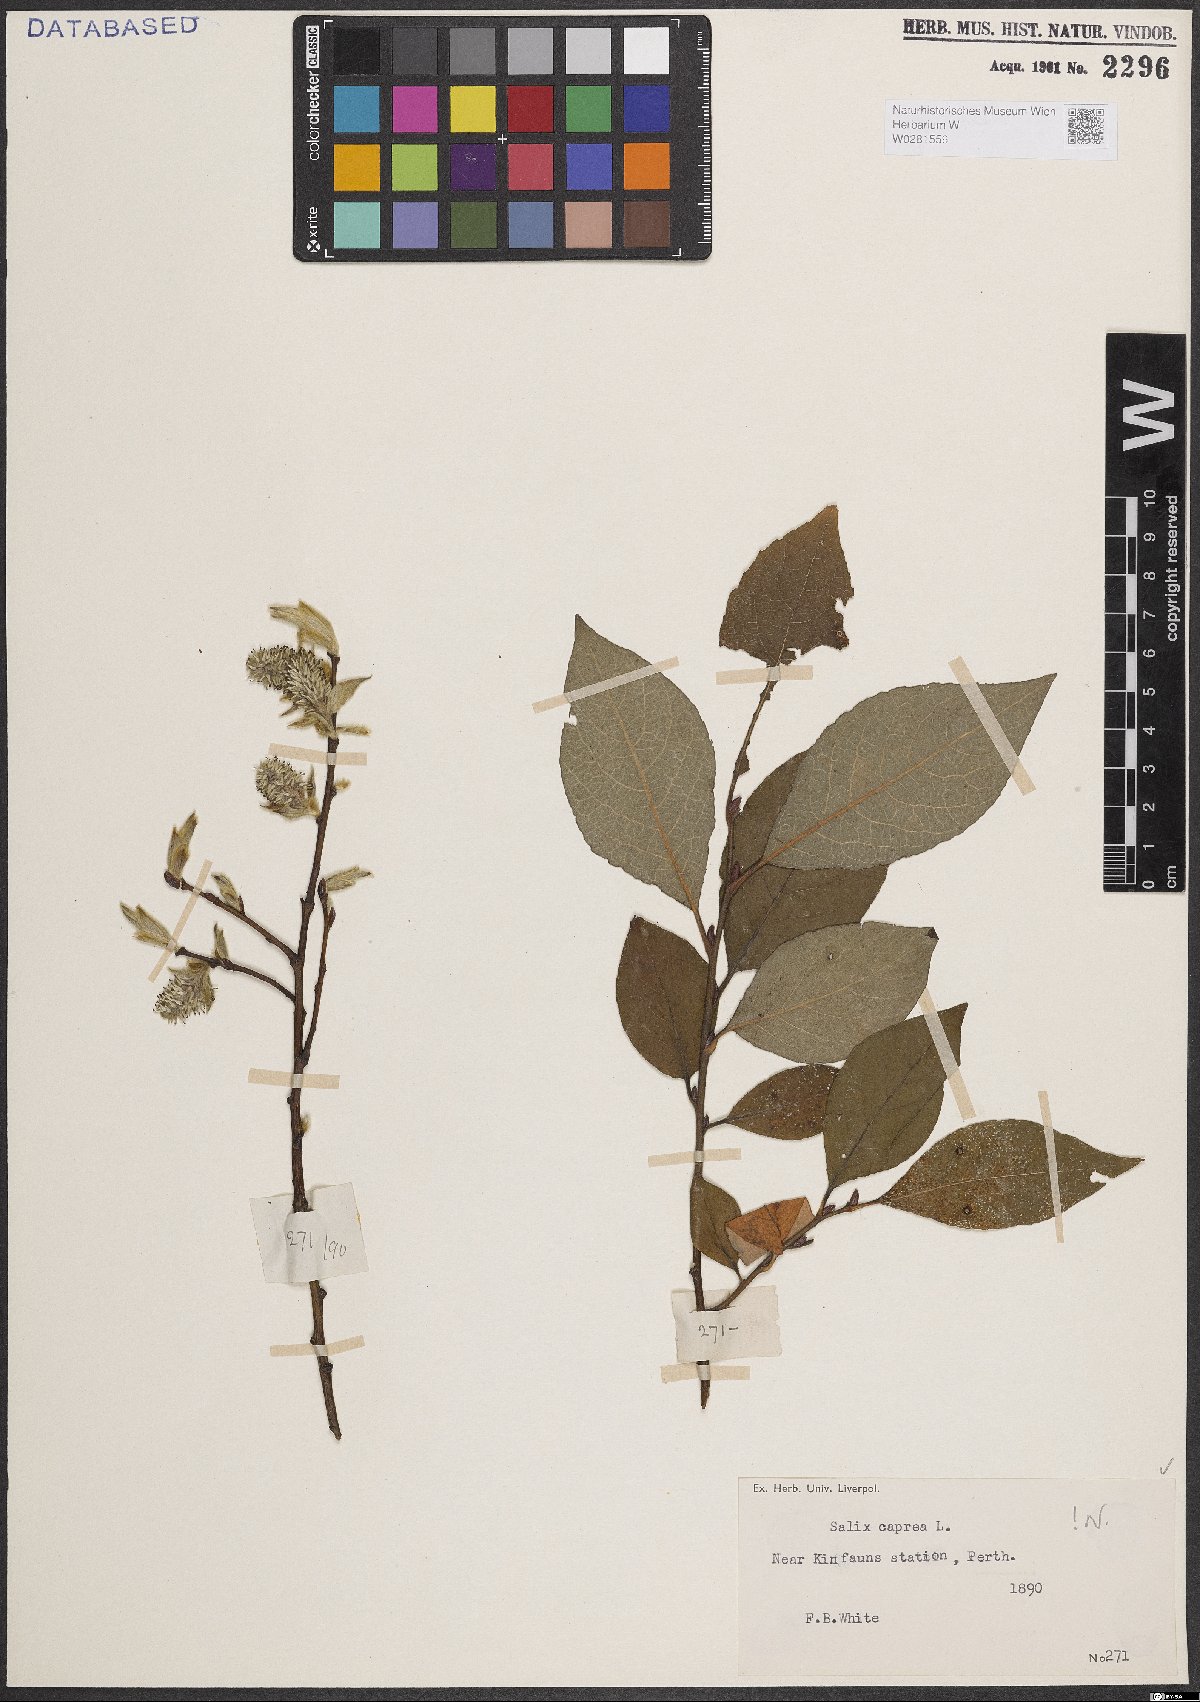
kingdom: Plantae
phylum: Tracheophyta
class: Magnoliopsida
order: Malpighiales
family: Salicaceae
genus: Salix
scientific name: Salix caprea
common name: Goat willow
